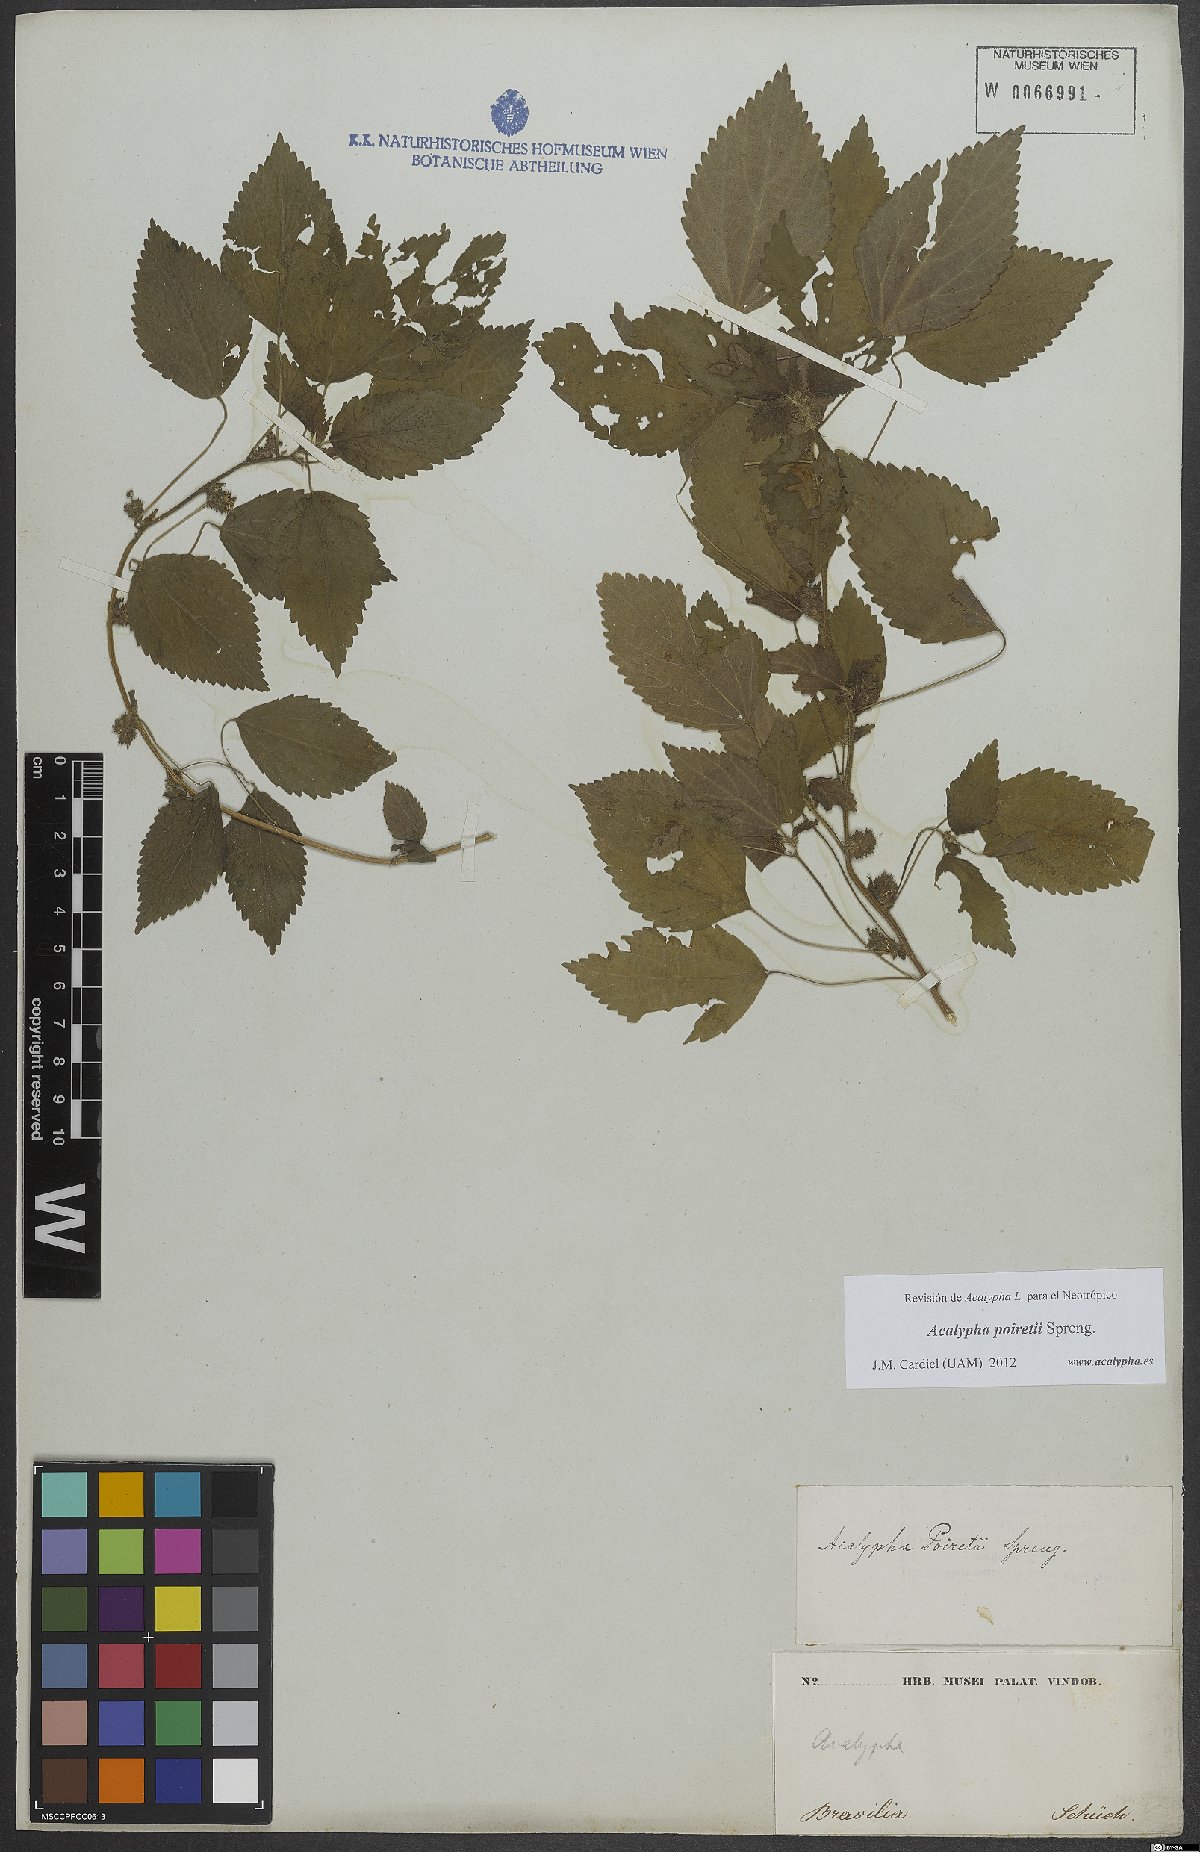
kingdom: Plantae
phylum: Tracheophyta
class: Magnoliopsida
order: Malpighiales
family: Euphorbiaceae
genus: Acalypha
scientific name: Acalypha poiretii
